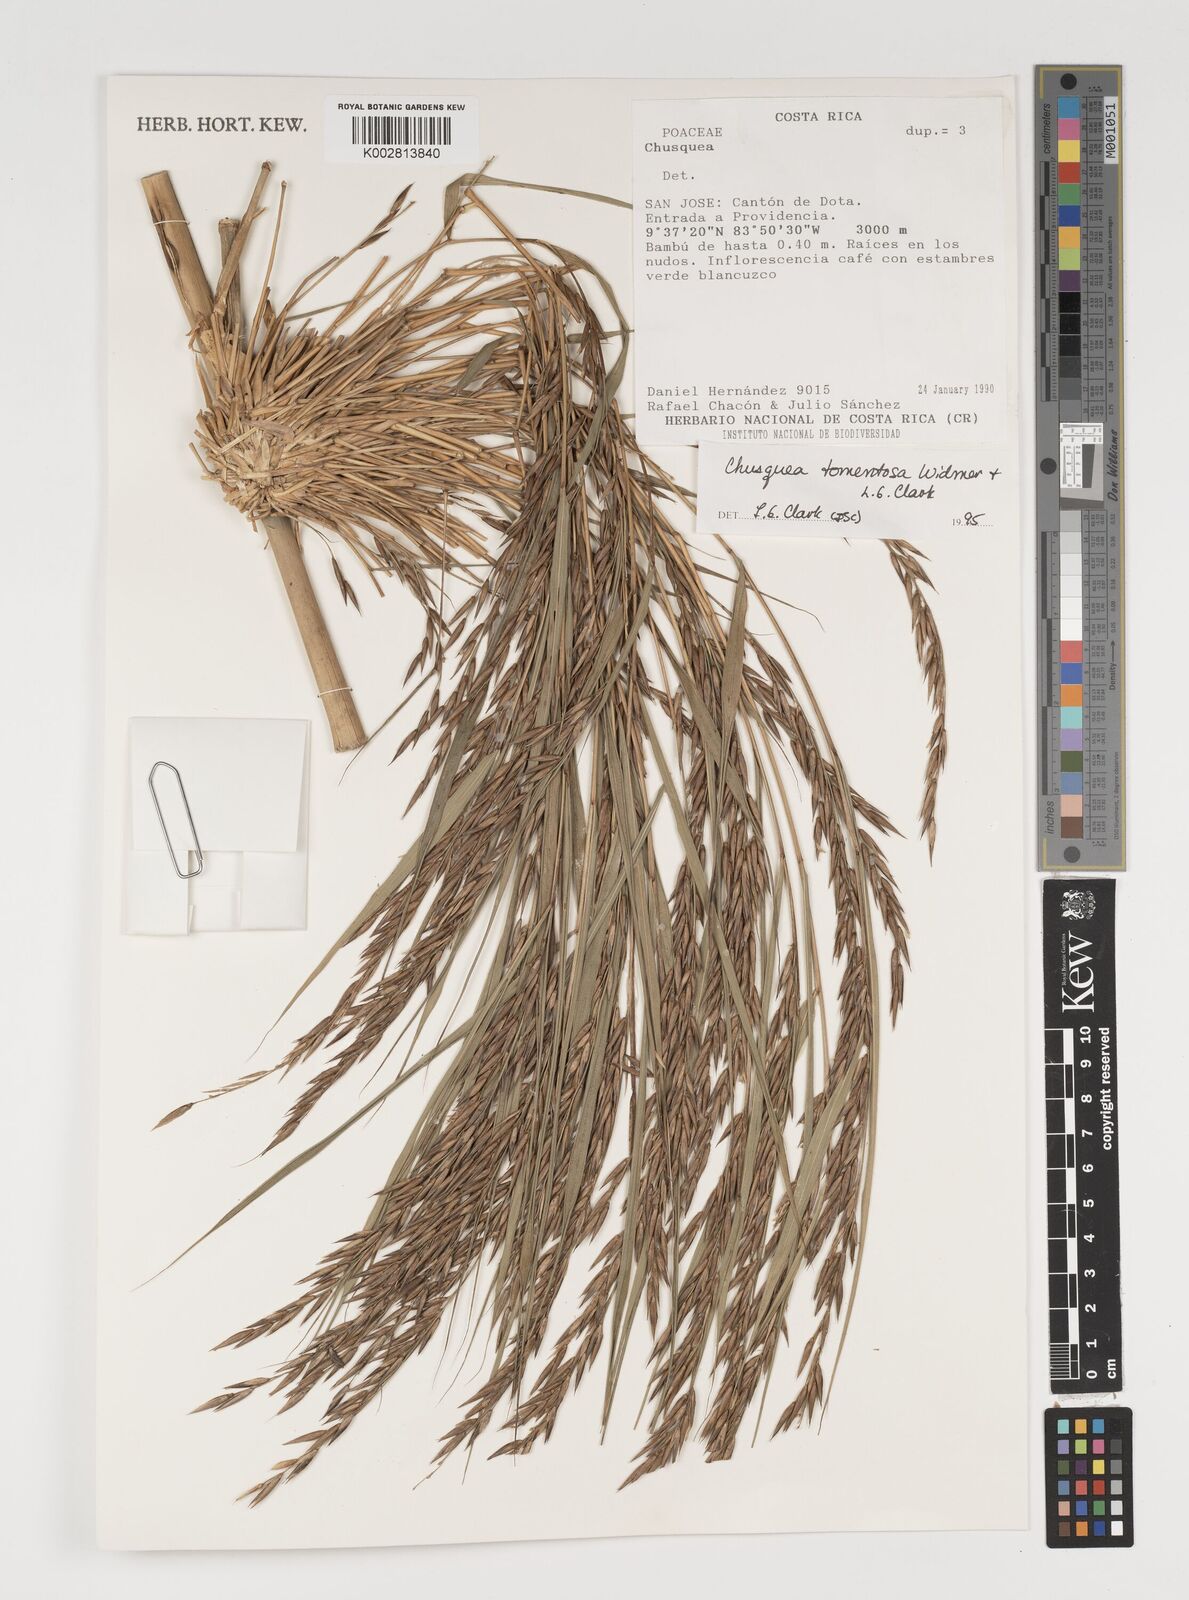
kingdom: Plantae
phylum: Tracheophyta
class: Liliopsida
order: Poales
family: Poaceae
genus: Chusquea
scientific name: Chusquea tomentosa
